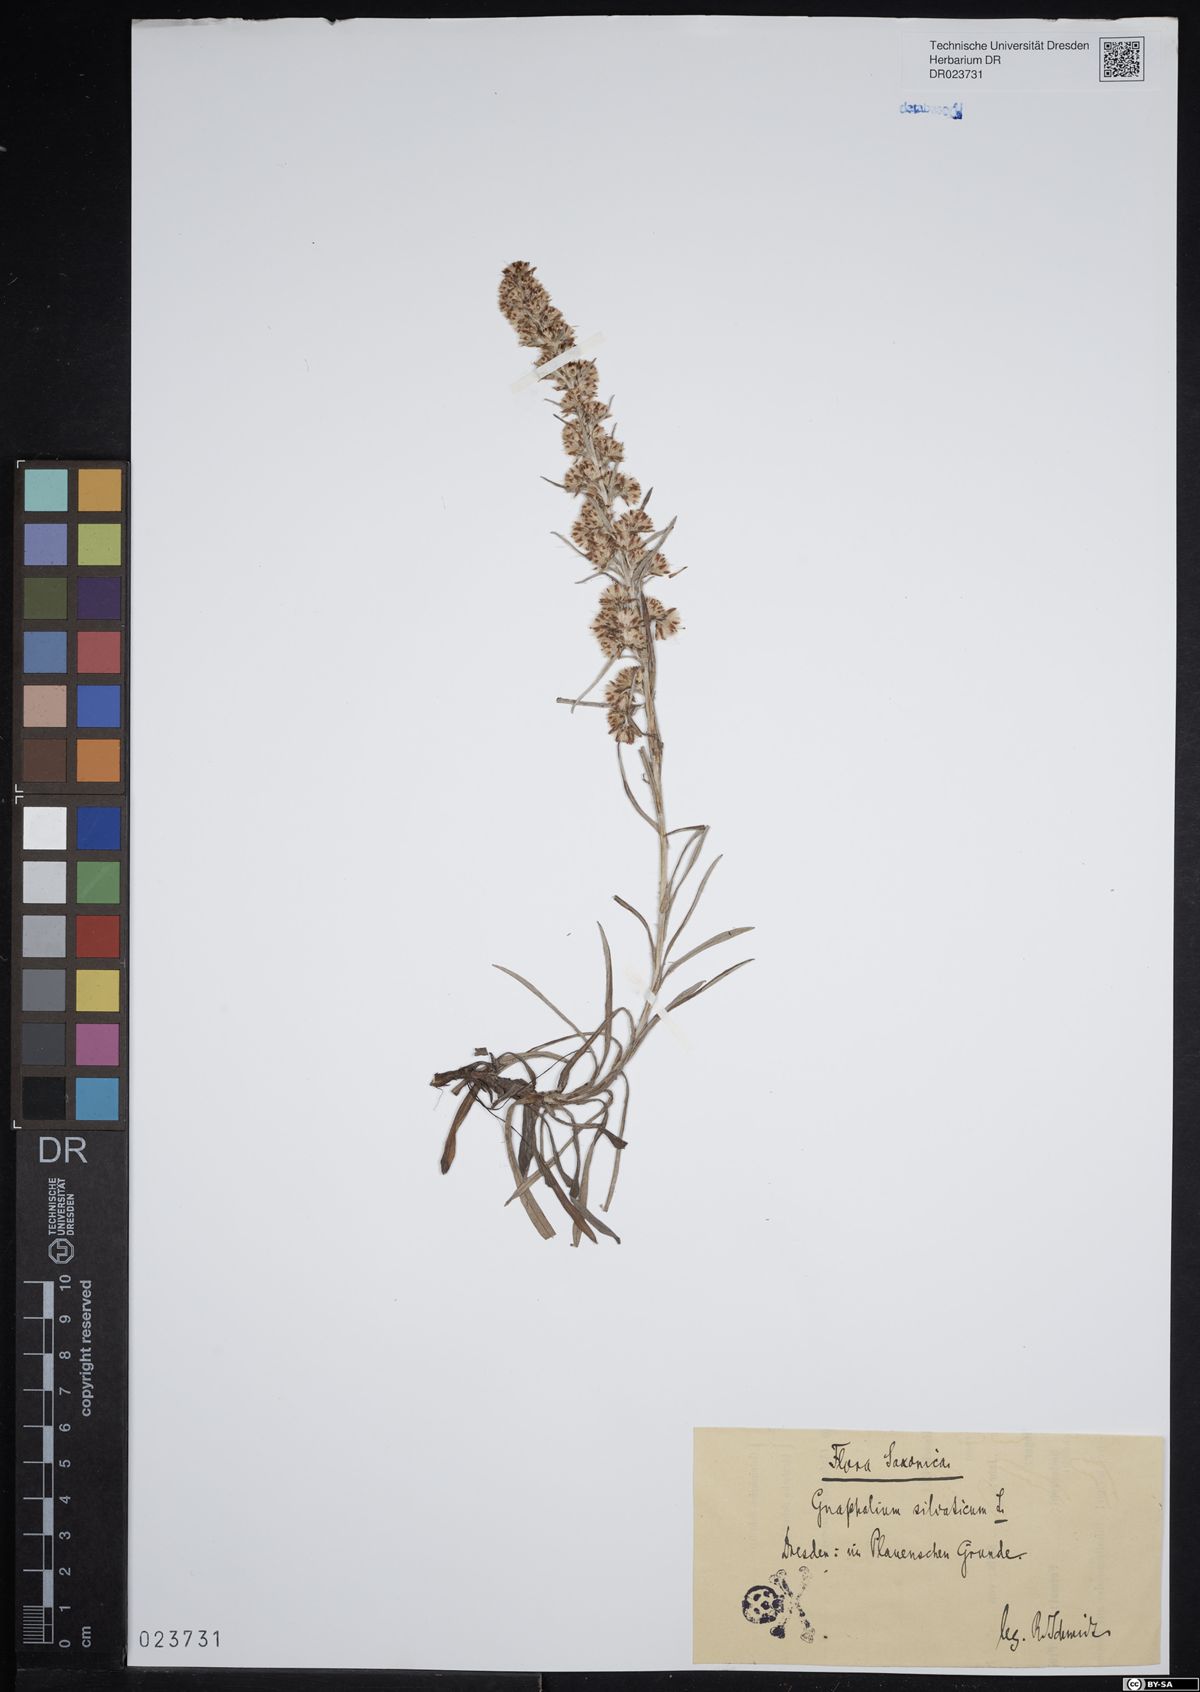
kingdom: Plantae
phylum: Tracheophyta
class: Magnoliopsida
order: Asterales
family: Asteraceae
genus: Omalotheca
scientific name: Omalotheca sylvatica
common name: Heath cudweed
